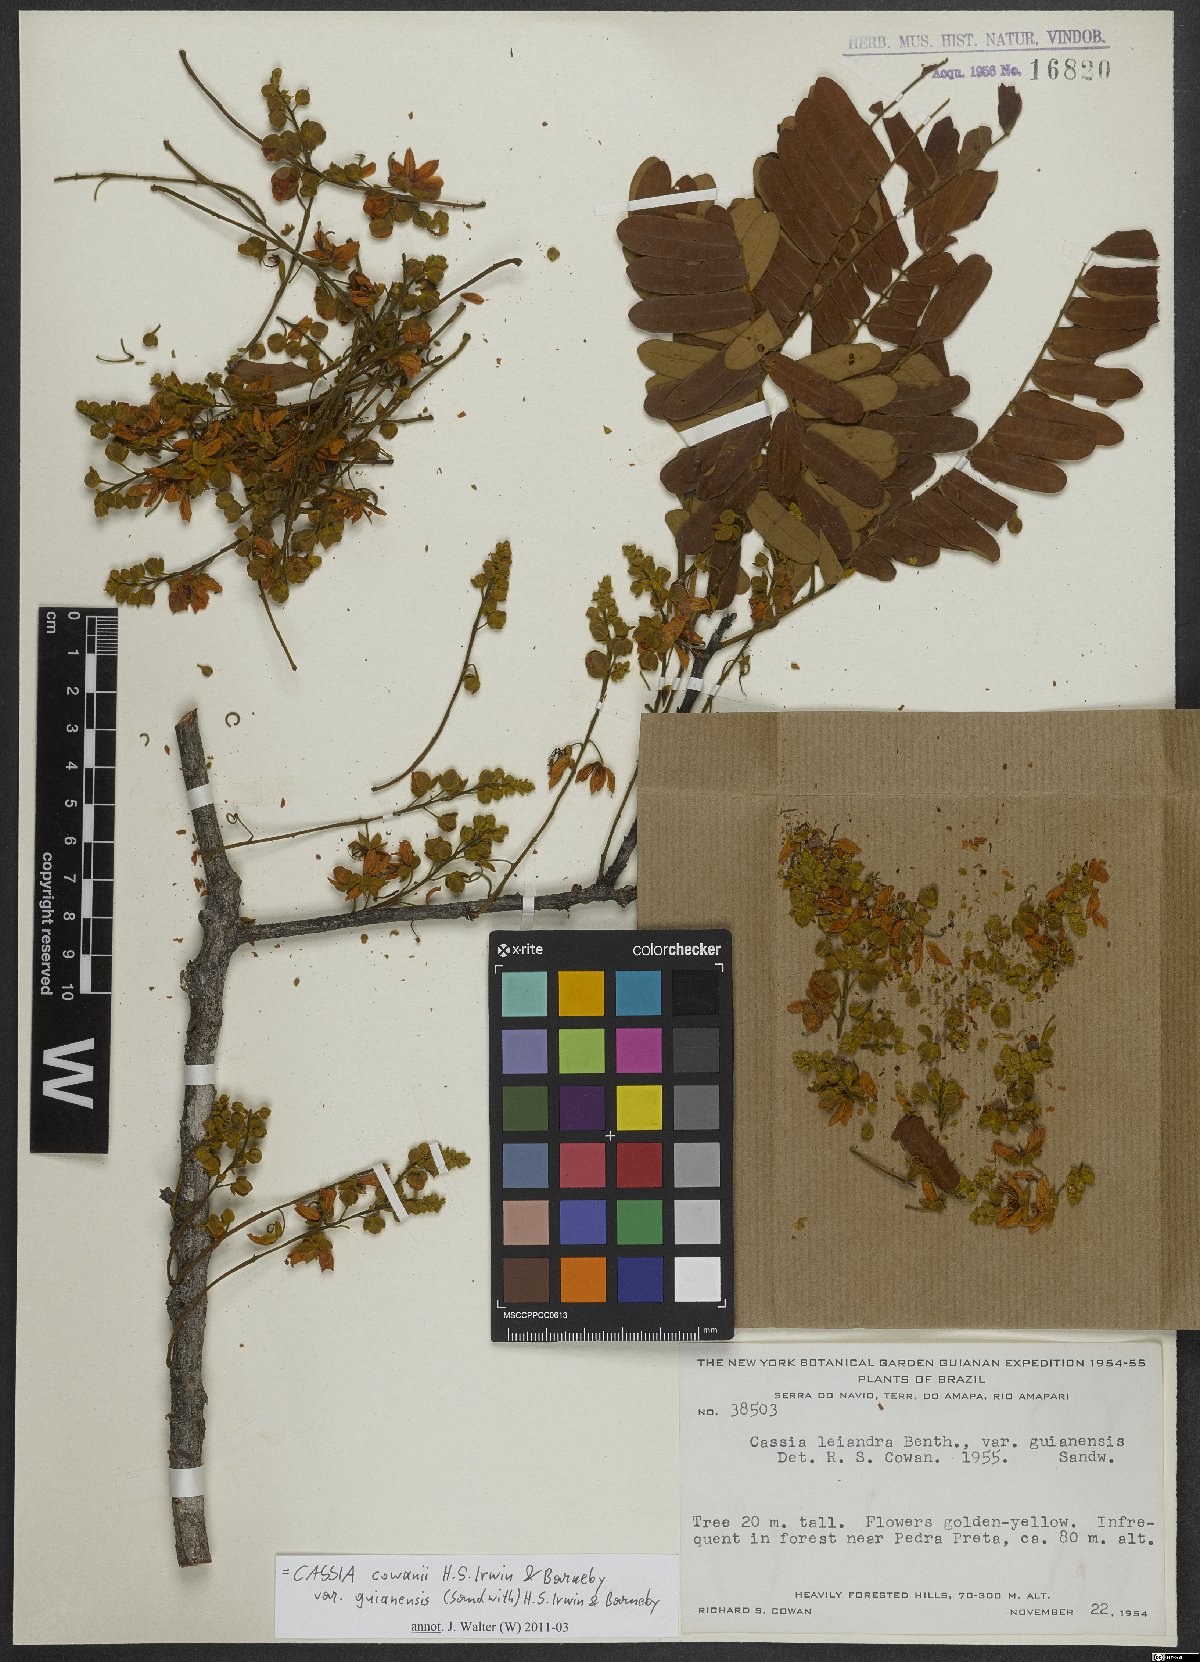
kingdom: Plantae
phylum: Tracheophyta
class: Magnoliopsida
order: Fabales
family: Fabaceae
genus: Cassia
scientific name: Cassia cowanii
